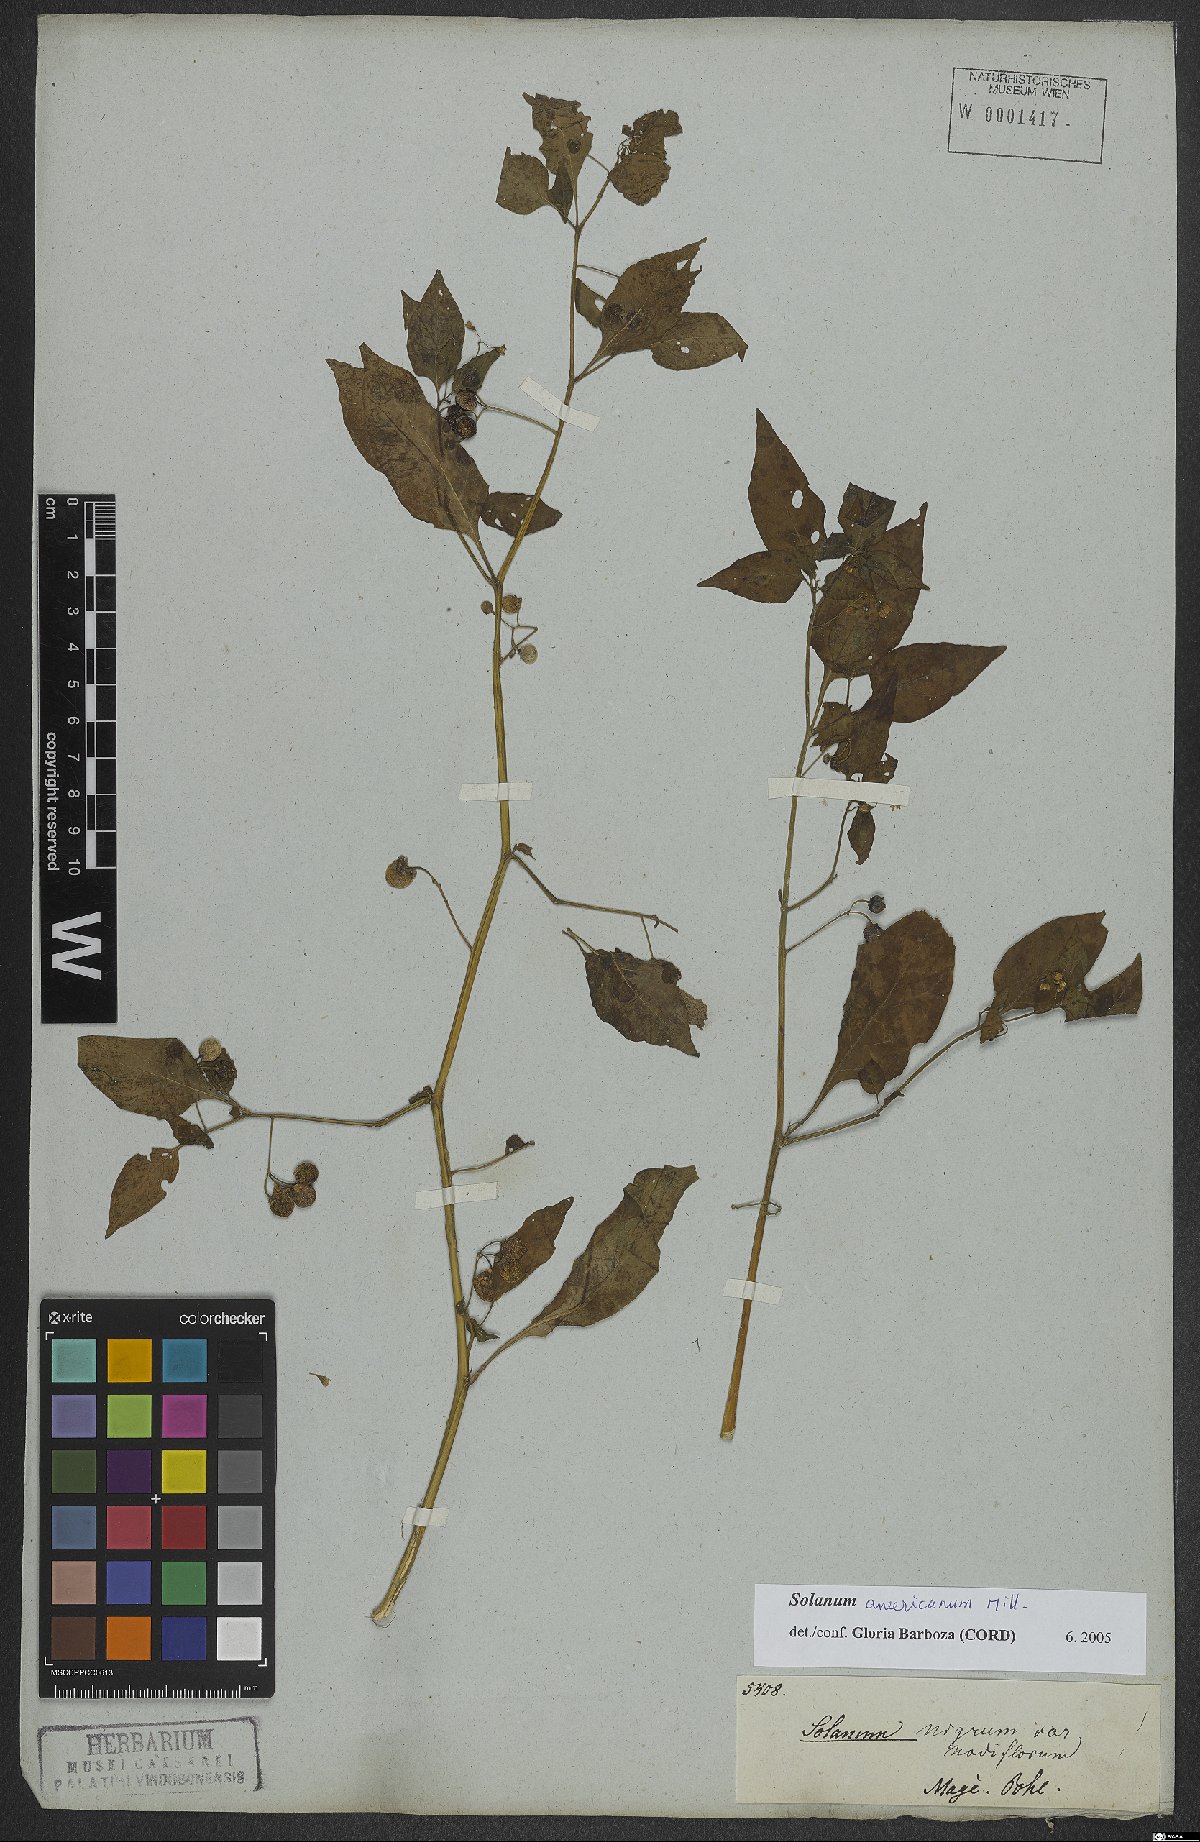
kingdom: Plantae
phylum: Tracheophyta
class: Magnoliopsida
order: Solanales
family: Solanaceae
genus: Solanum
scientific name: Solanum americanum
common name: American black nightshade
